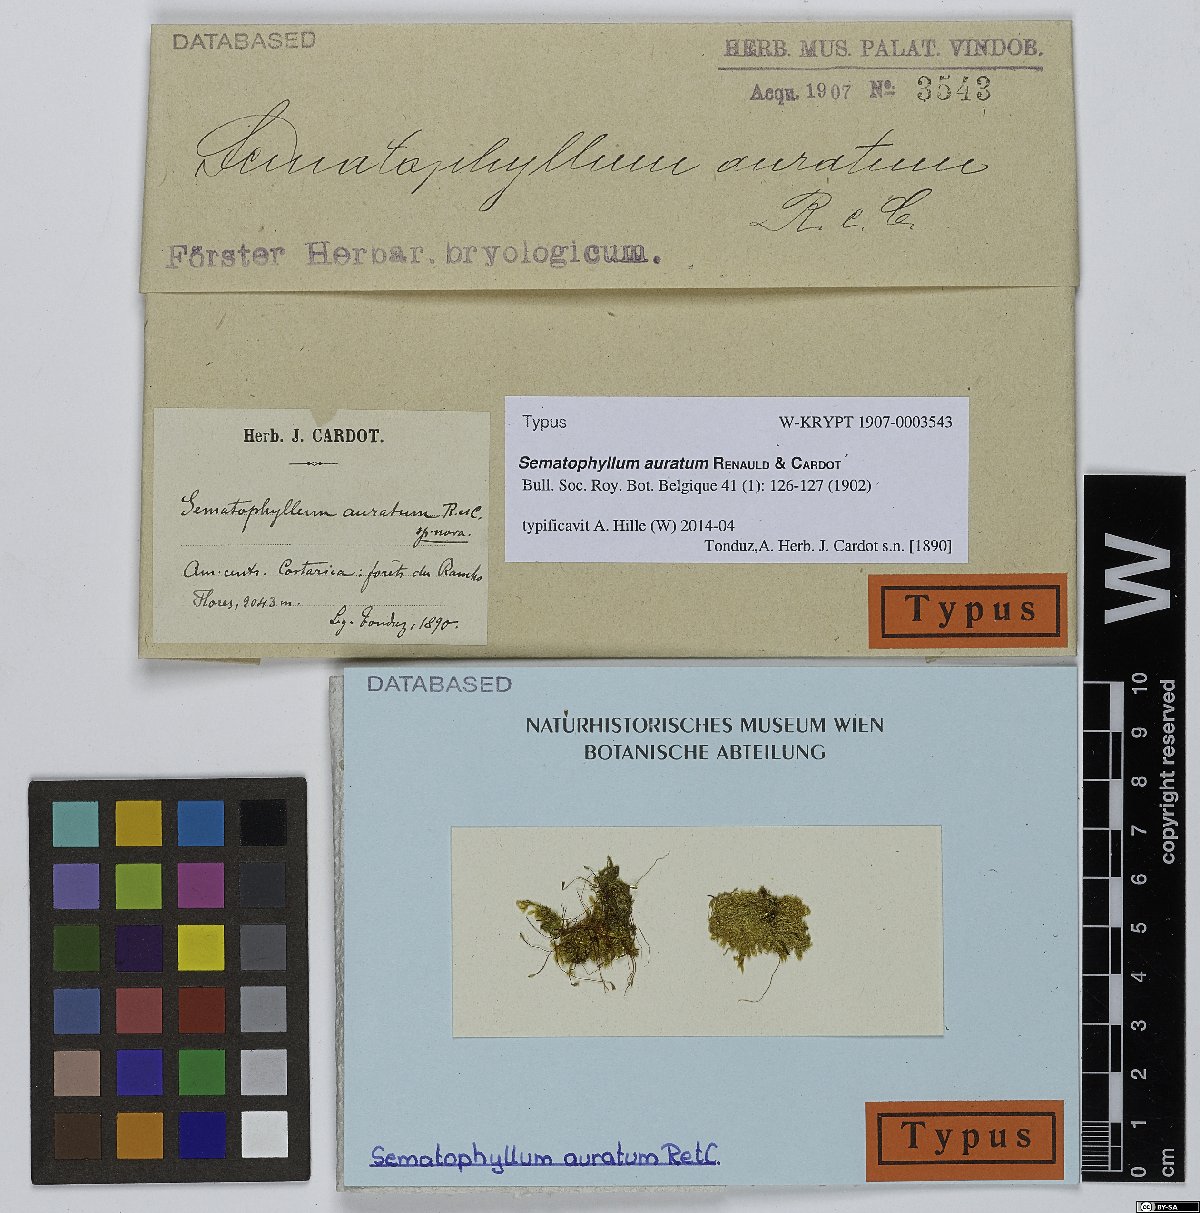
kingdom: Plantae
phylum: Bryophyta
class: Bryopsida
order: Hypnales
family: Sematophyllaceae
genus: Jirivanaea
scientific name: Jirivanaea caespitosa
